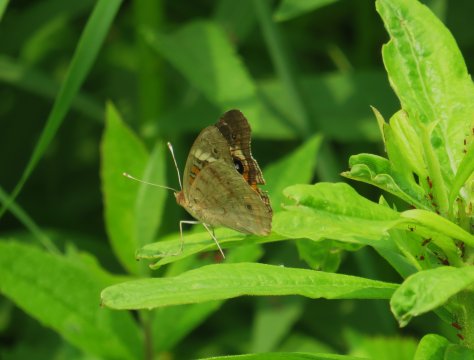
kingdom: Animalia
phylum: Arthropoda
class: Insecta
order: Lepidoptera
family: Nymphalidae
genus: Junonia
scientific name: Junonia coenia
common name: Common Buckeye
